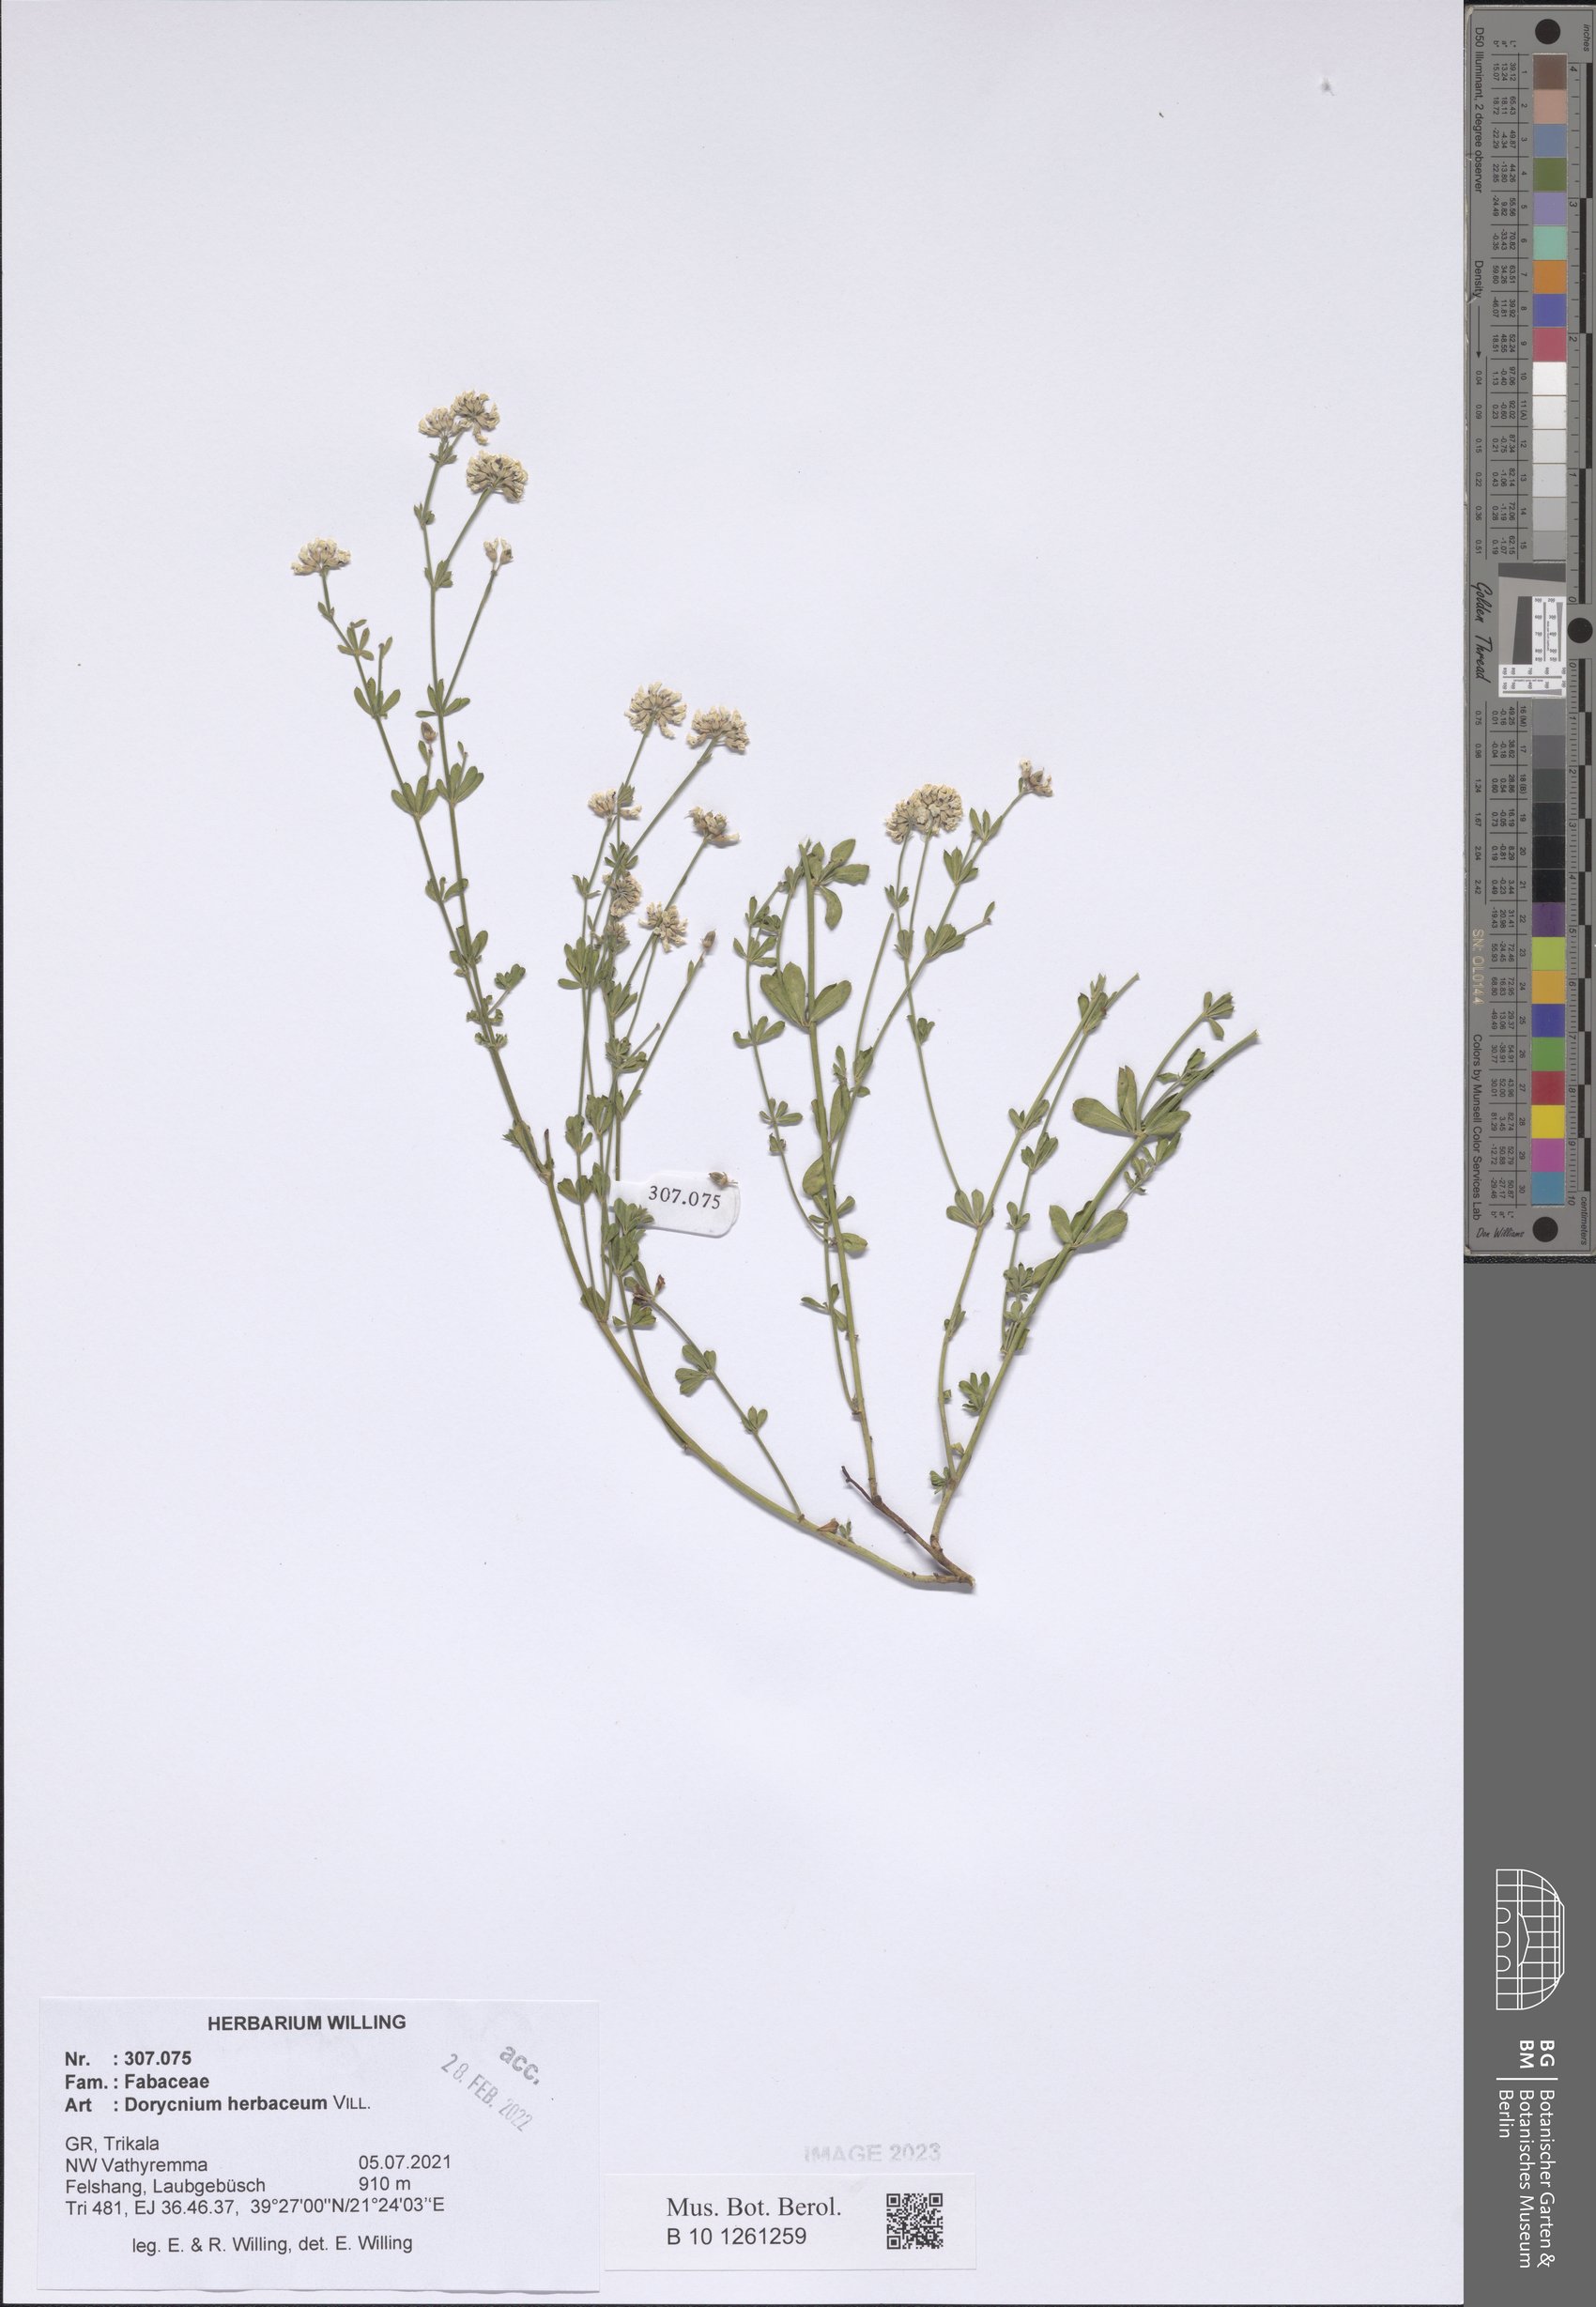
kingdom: Plantae
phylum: Tracheophyta
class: Magnoliopsida
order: Fabales
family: Fabaceae
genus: Lotus
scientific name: Lotus herbaceus
